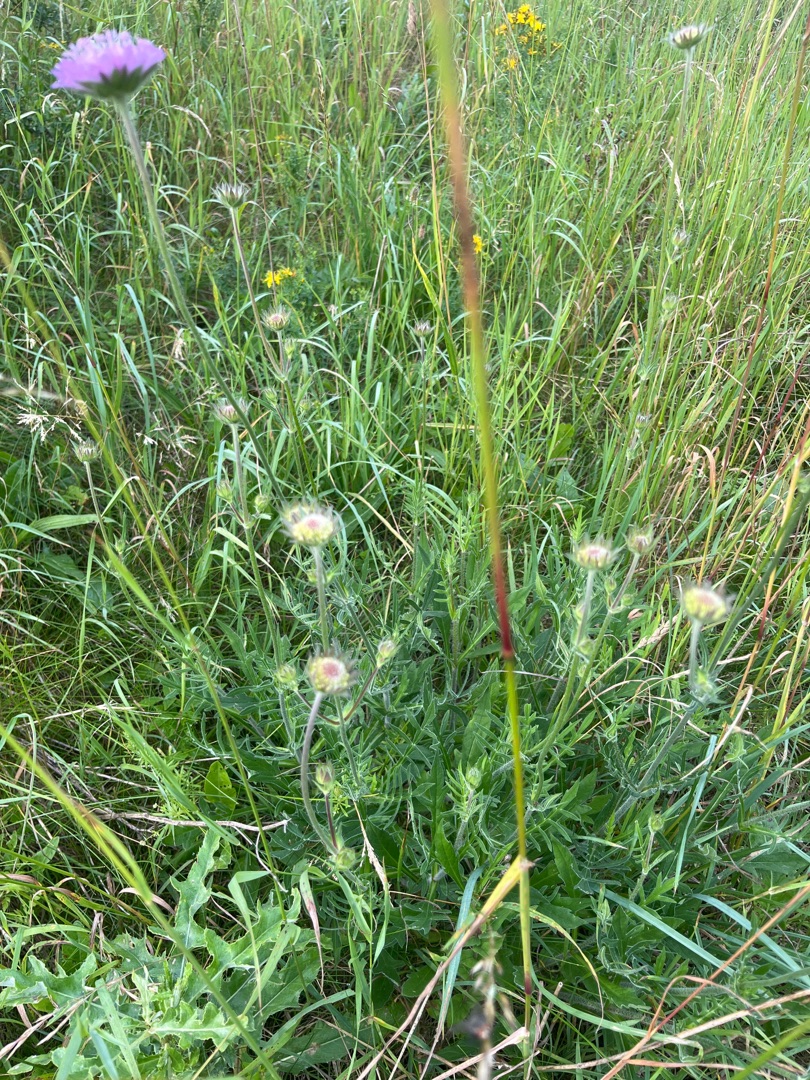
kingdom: Plantae
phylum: Tracheophyta
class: Magnoliopsida
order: Dipsacales
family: Caprifoliaceae
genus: Knautia
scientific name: Knautia arvensis
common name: Blåhat
